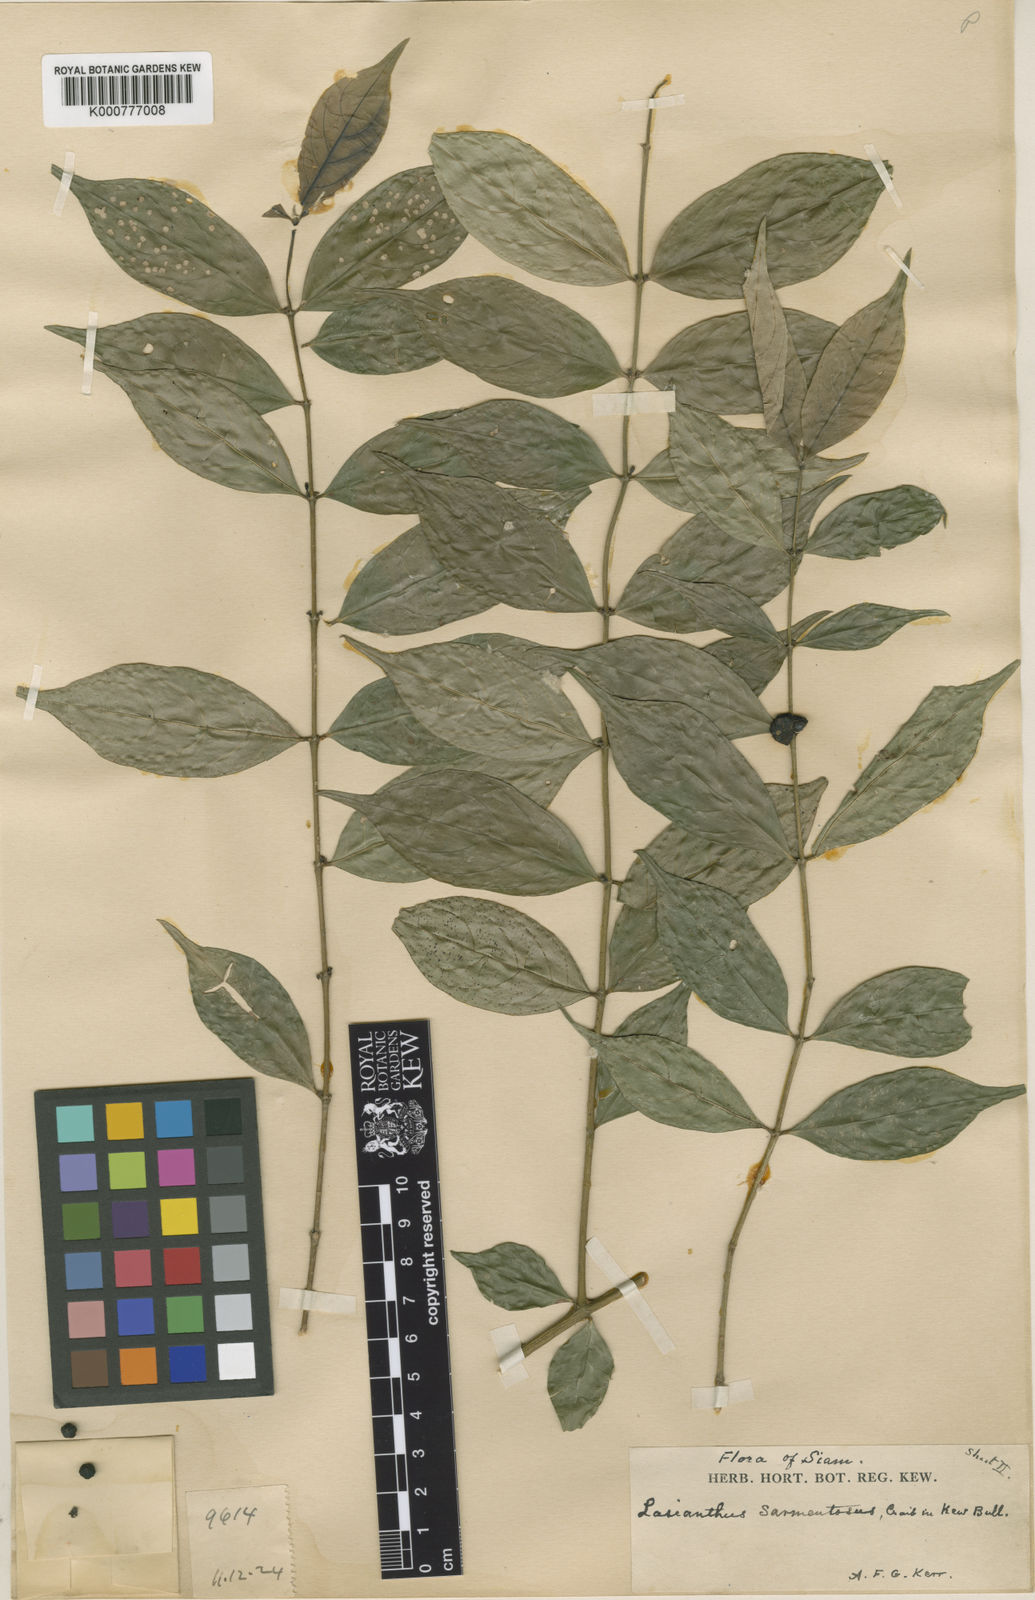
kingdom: Plantae
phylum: Tracheophyta
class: Magnoliopsida
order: Gentianales
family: Rubiaceae
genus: Lasianthus
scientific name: Lasianthus sarmentosus
